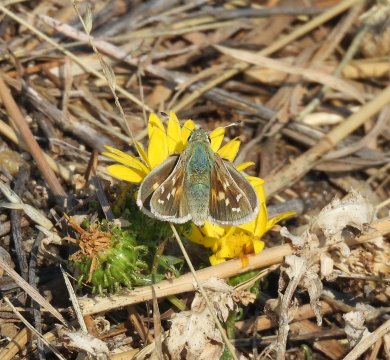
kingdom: Animalia
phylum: Arthropoda
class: Insecta
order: Lepidoptera
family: Hesperiidae
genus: Hesperia
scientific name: Hesperia comma
